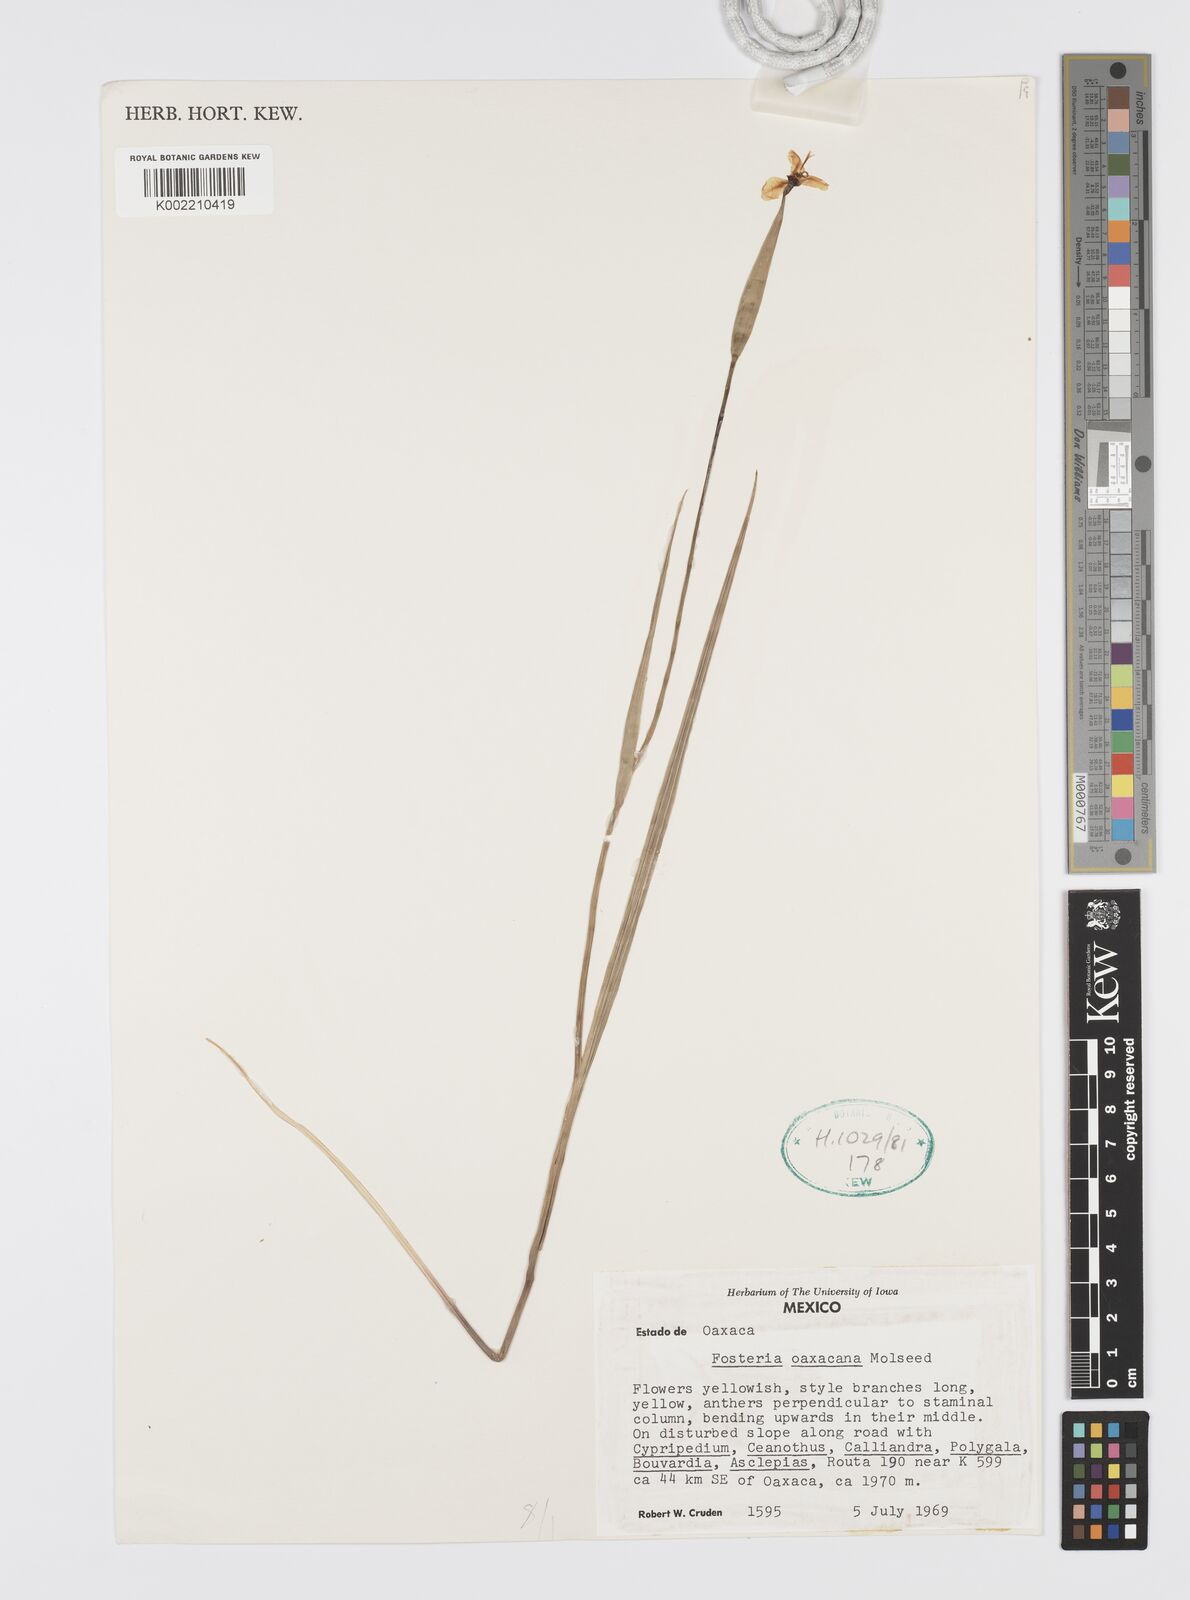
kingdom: Plantae
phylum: Tracheophyta
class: Liliopsida
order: Asparagales
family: Iridaceae
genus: Tigridia
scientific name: Tigridia oaxacana
